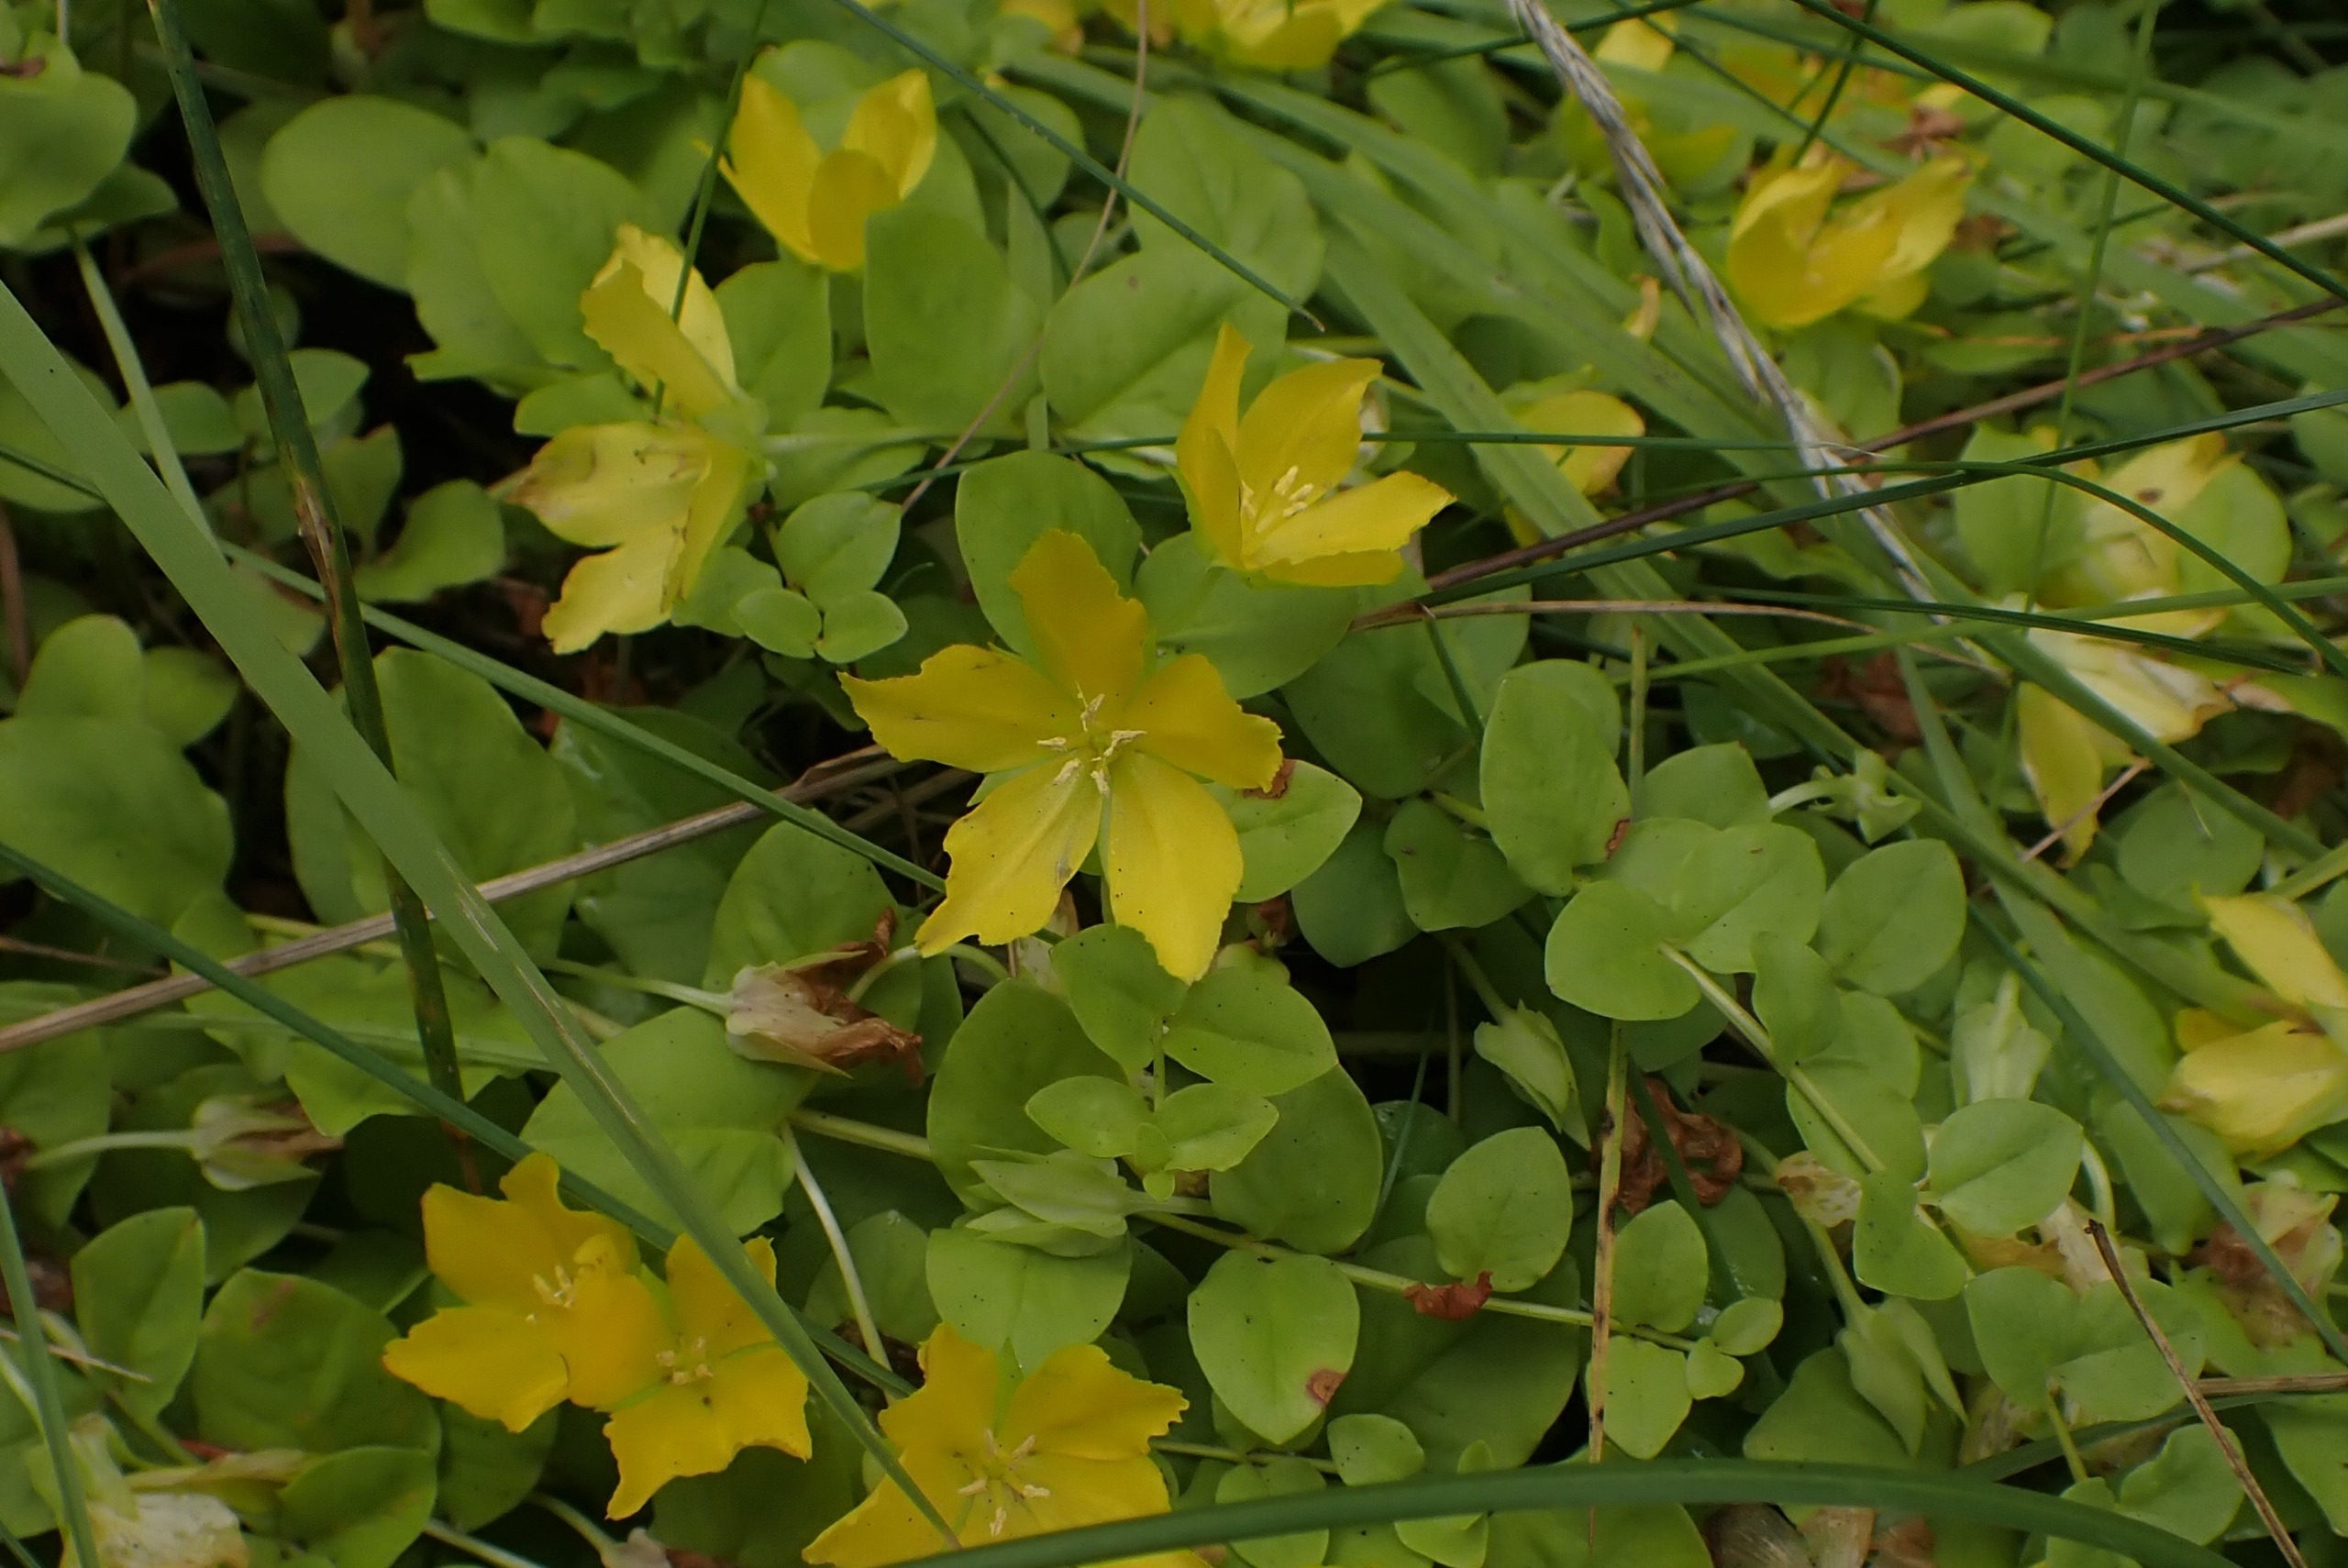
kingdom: Plantae
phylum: Tracheophyta
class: Magnoliopsida
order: Ericales
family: Primulaceae
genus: Lysimachia
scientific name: Lysimachia nummularia
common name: Pengebladet fredløs
